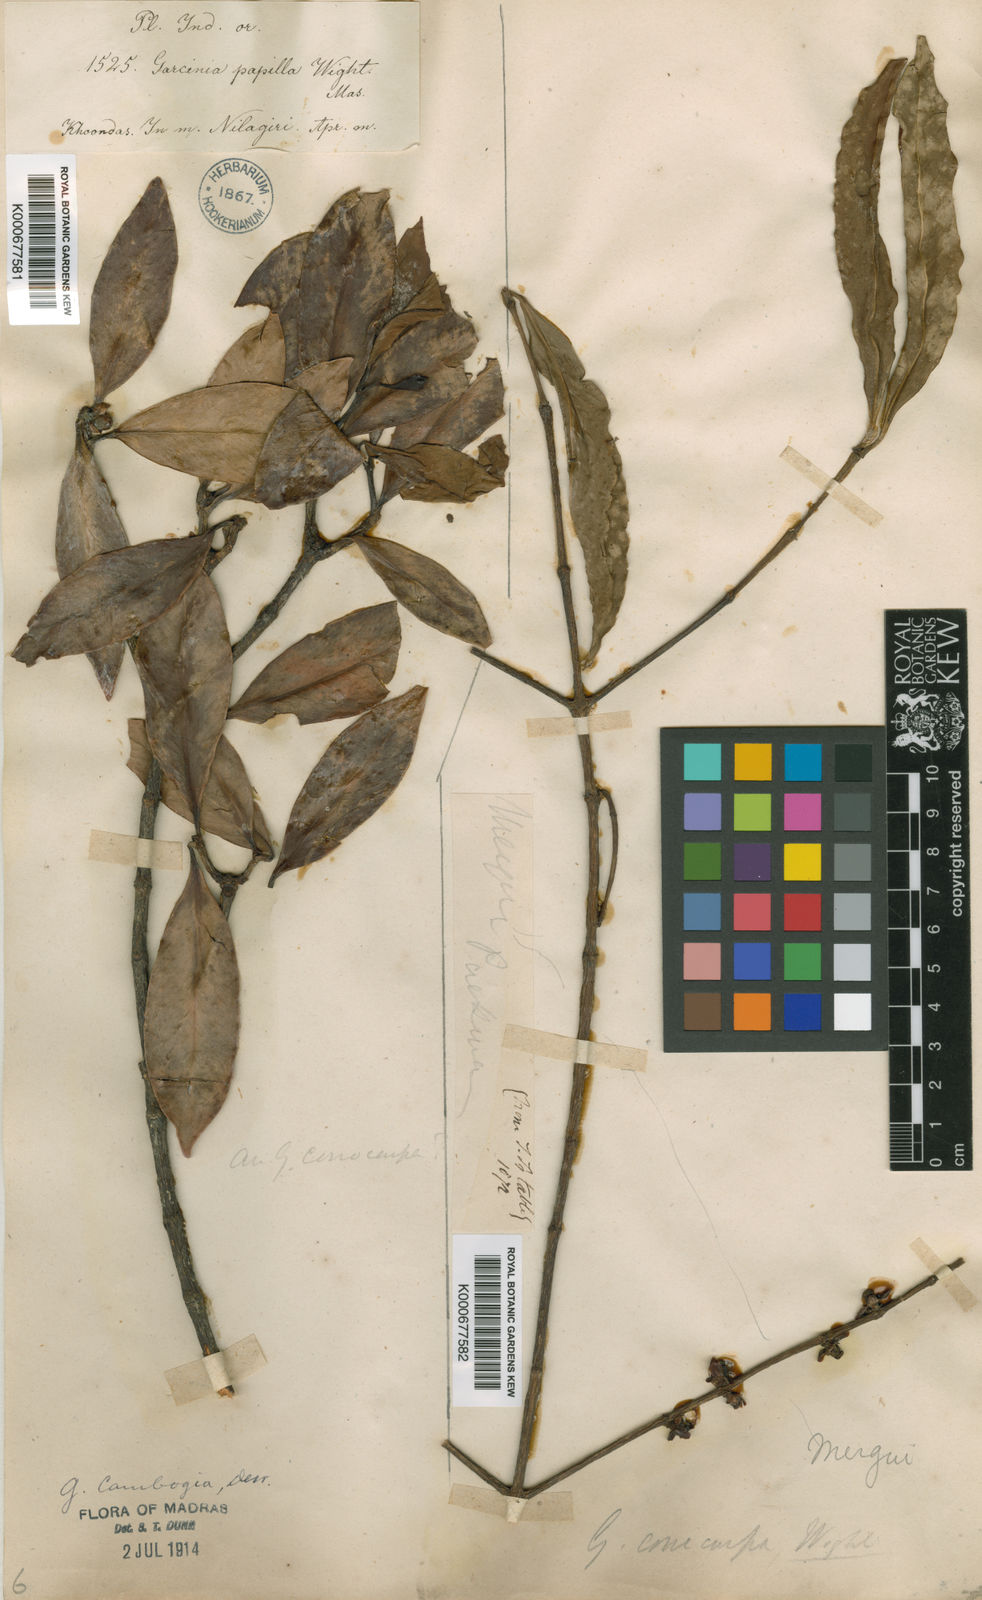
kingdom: Plantae
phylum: Tracheophyta
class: Magnoliopsida
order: Malpighiales
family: Clusiaceae
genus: Garcinia
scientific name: Garcinia gummi-gutta
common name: Malabar tamarind
